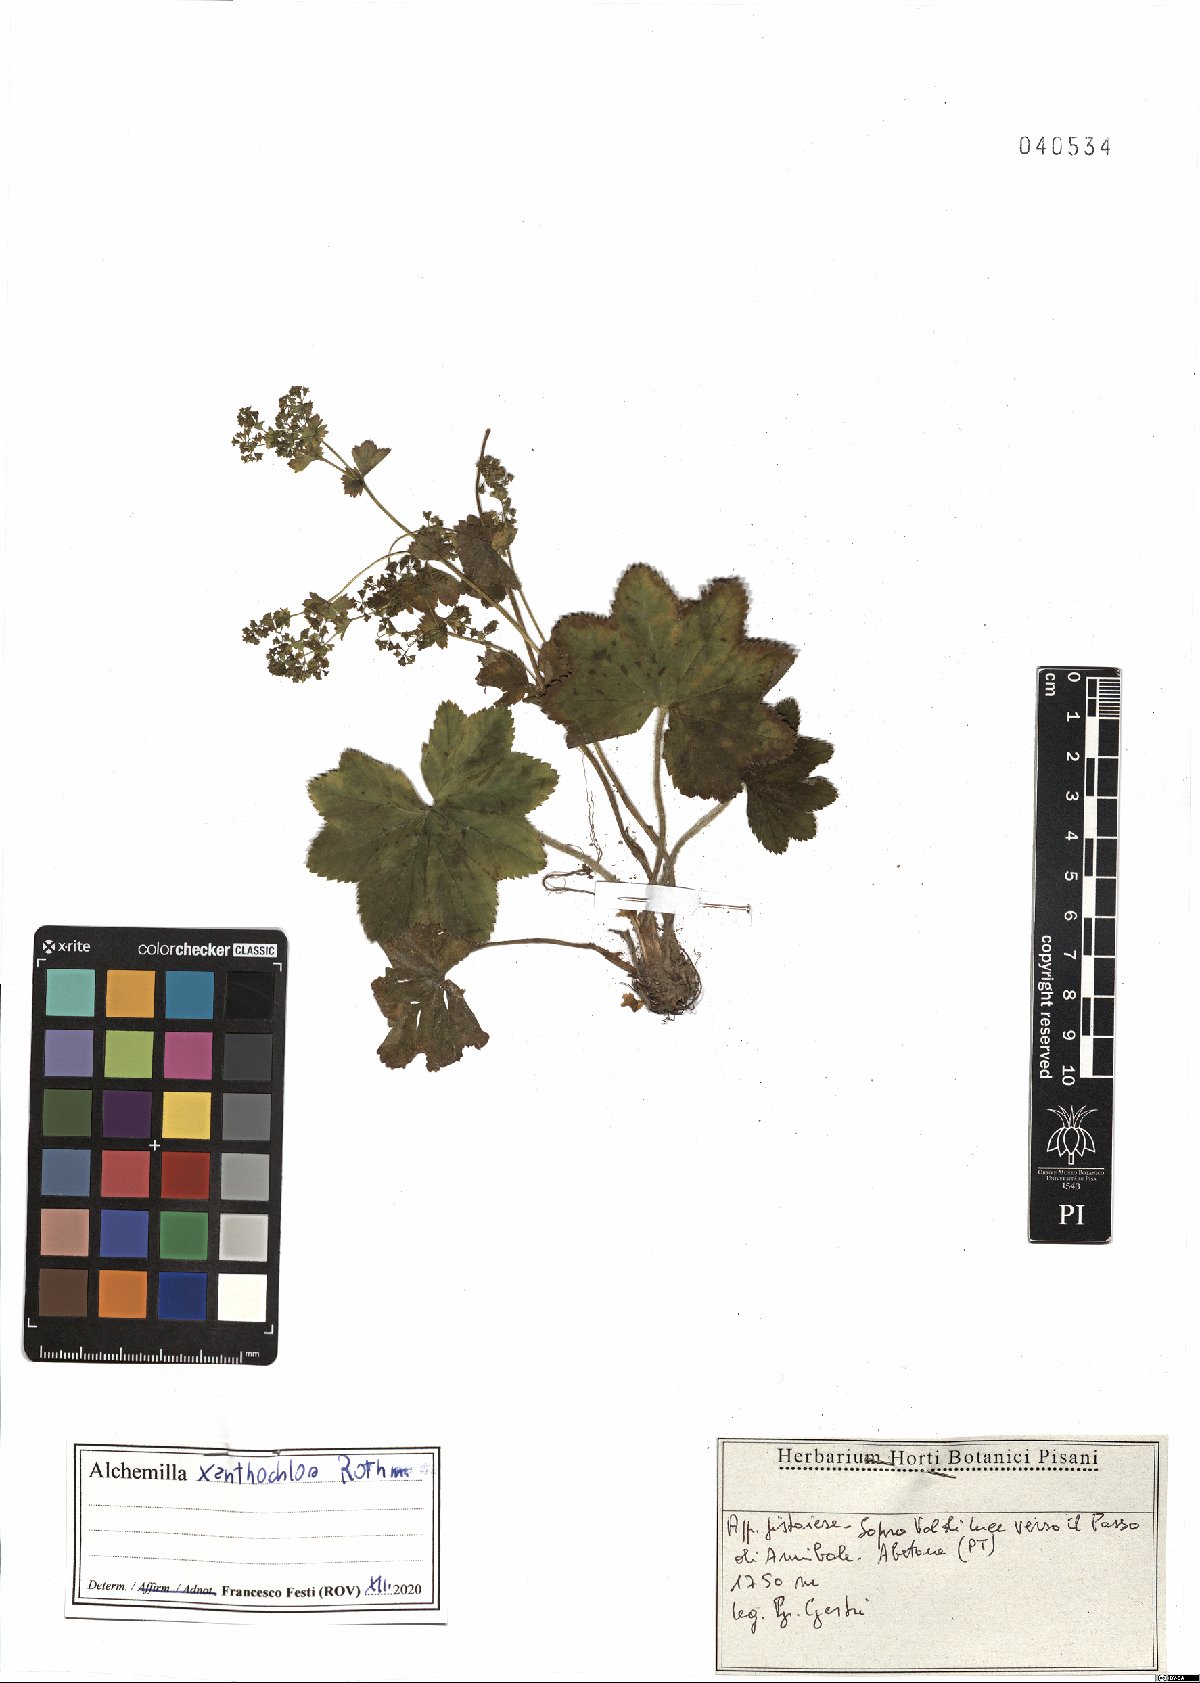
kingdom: Plantae
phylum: Tracheophyta
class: Magnoliopsida
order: Rosales
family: Rosaceae
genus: Alchemilla
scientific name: Alchemilla xanthochlora
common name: Intermediate lady's-mantle
